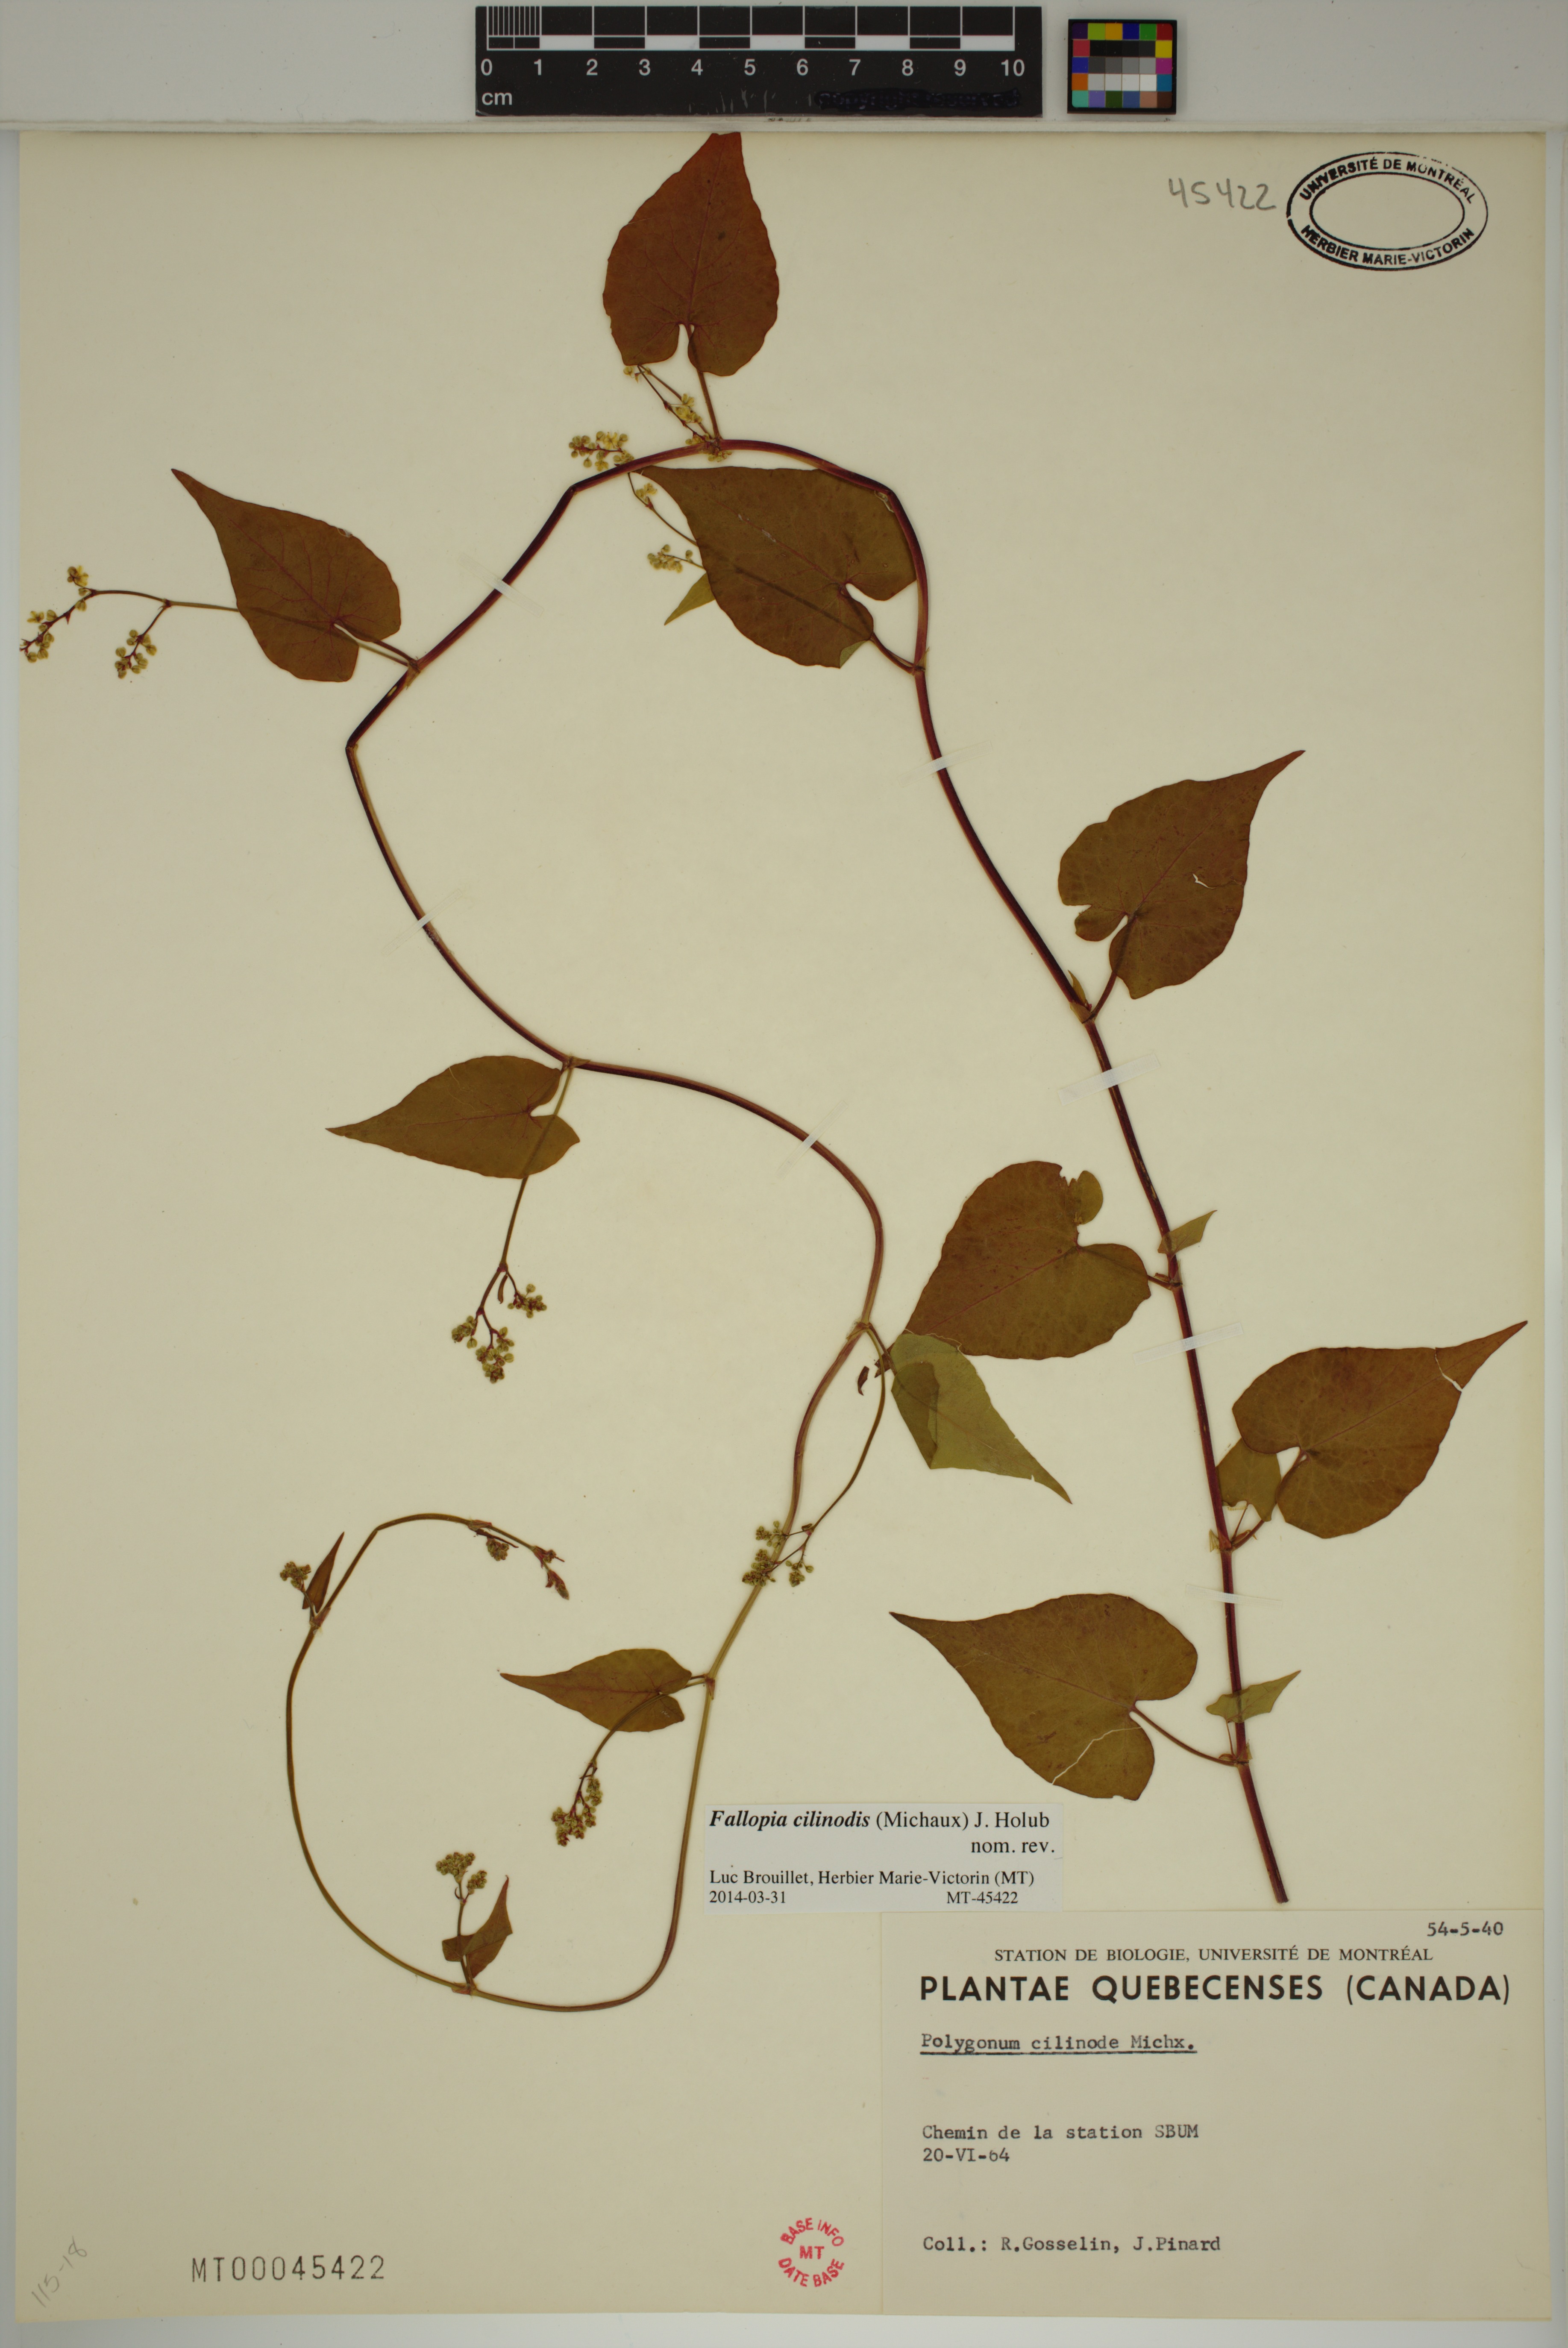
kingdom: Plantae
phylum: Tracheophyta
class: Magnoliopsida
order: Caryophyllales
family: Polygonaceae
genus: Parogonum
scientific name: Parogonum ciliinode
